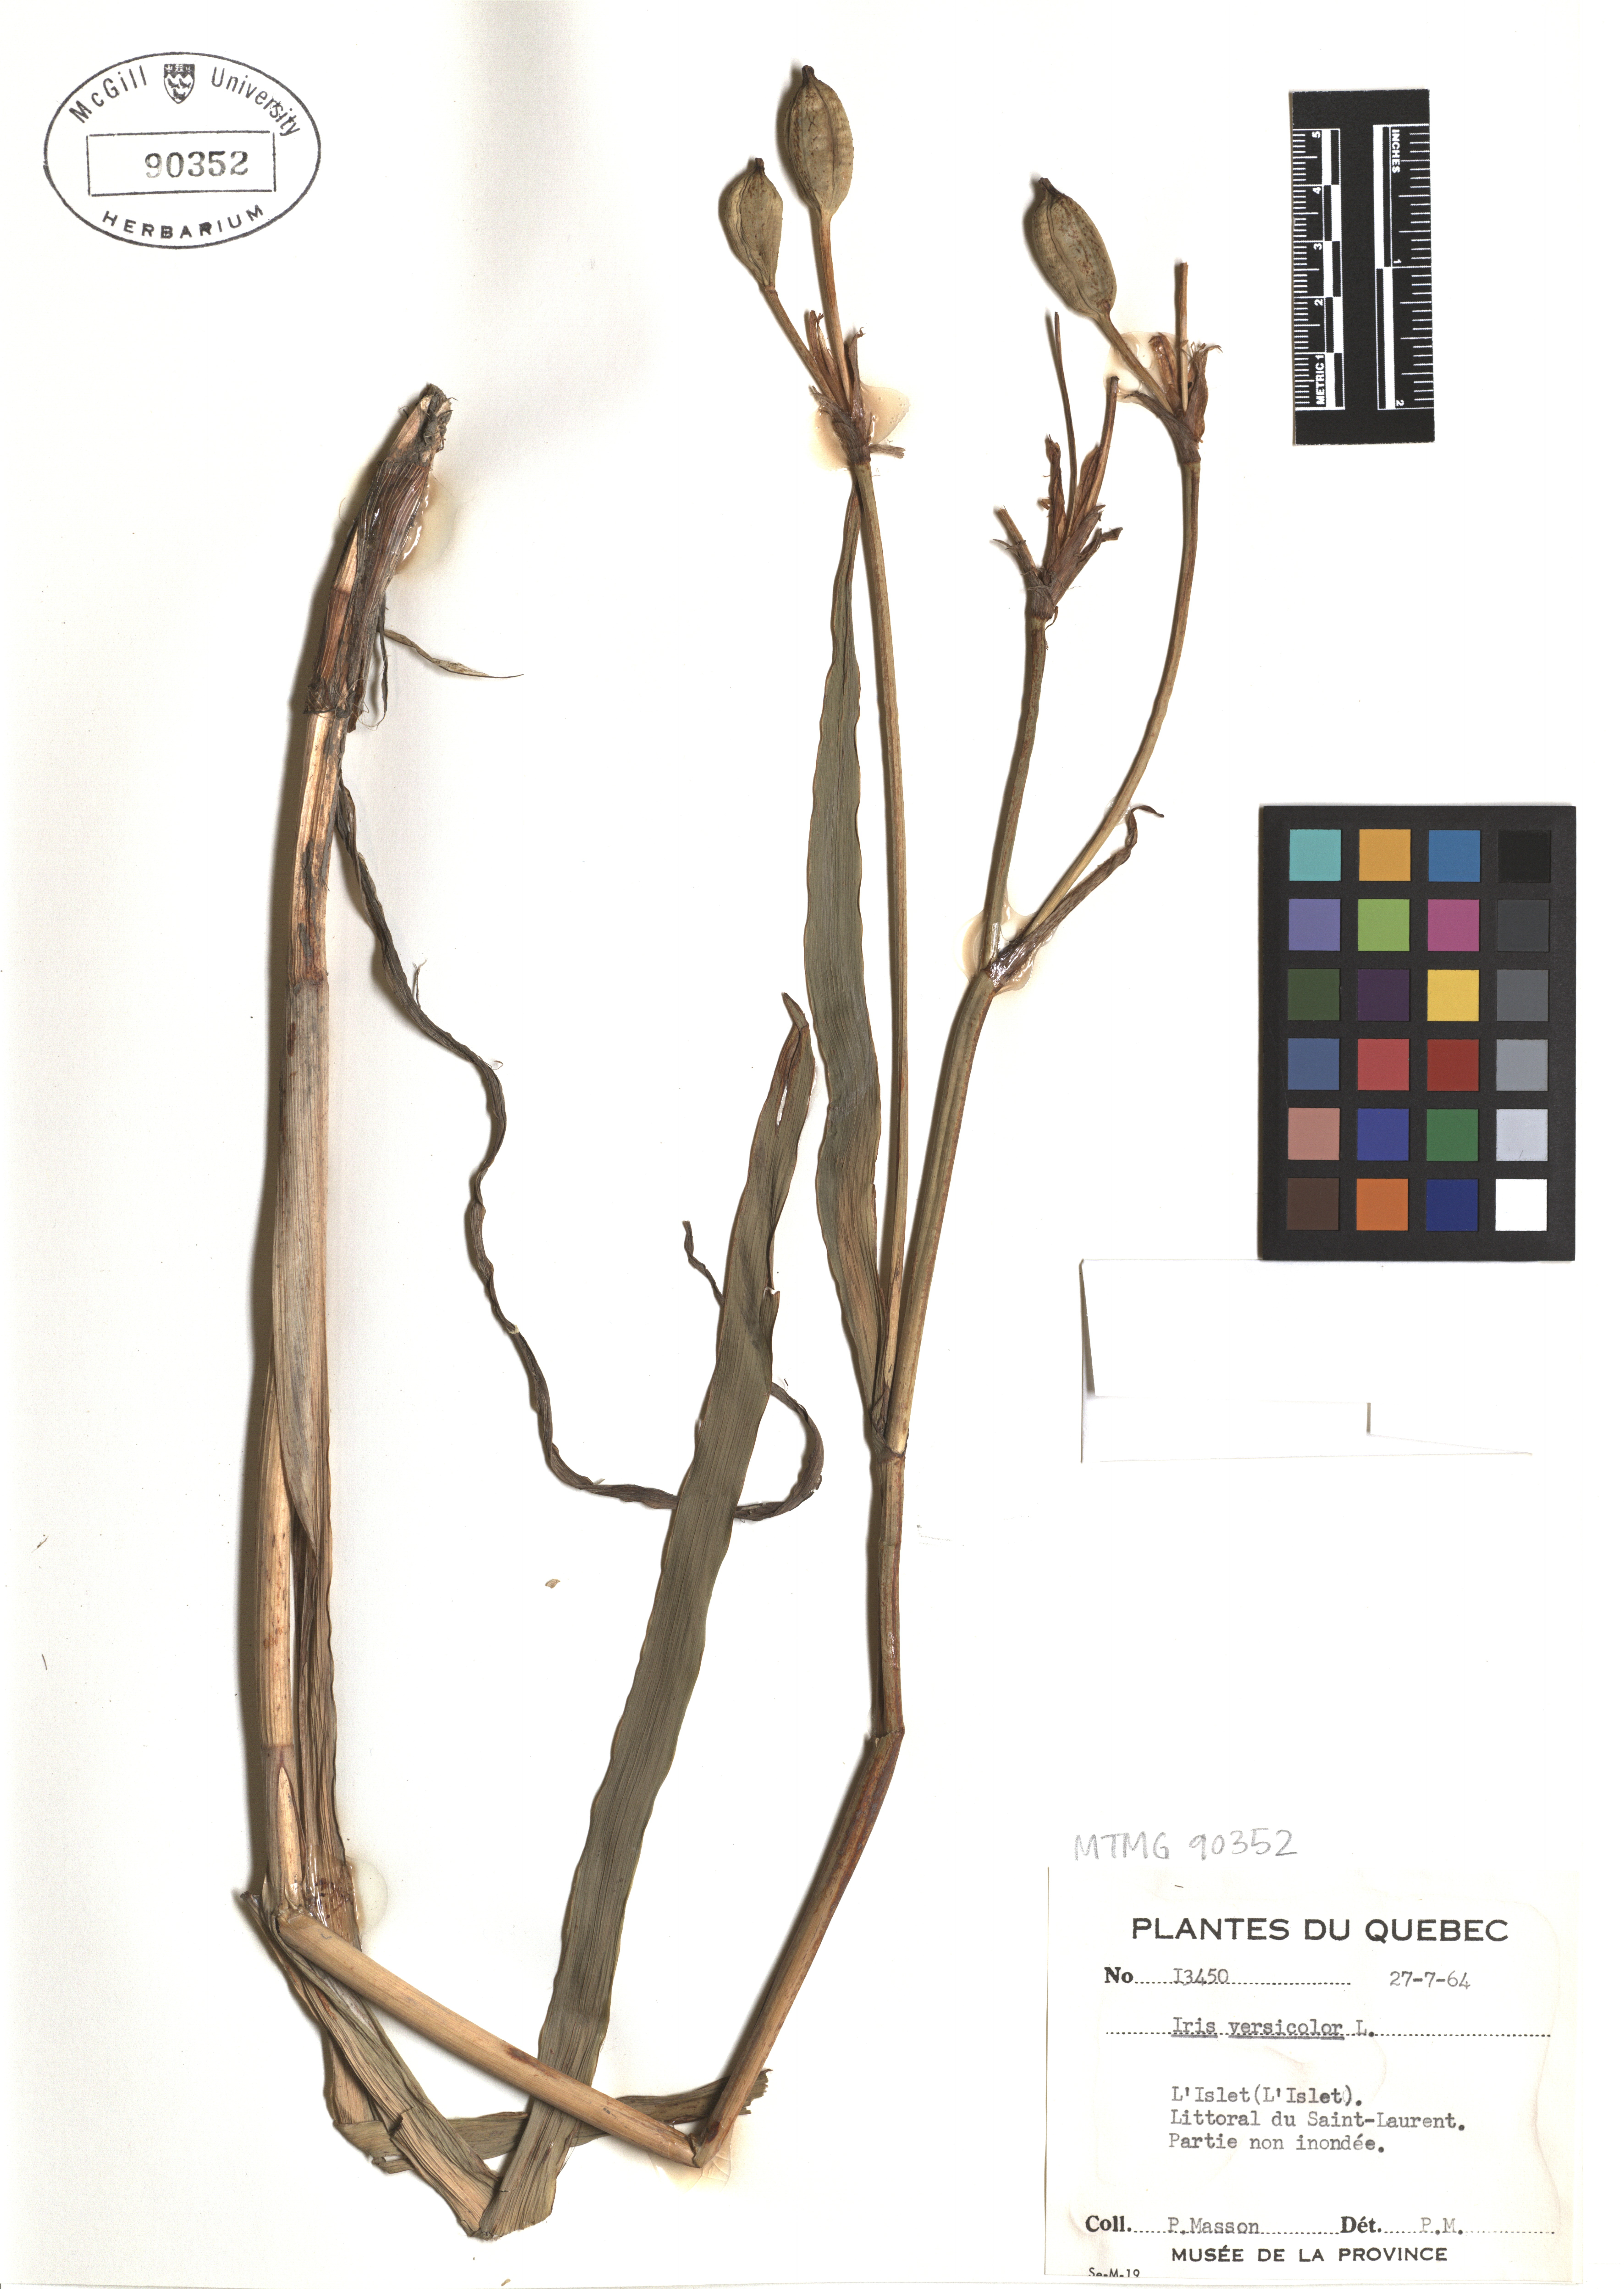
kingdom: Plantae
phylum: Tracheophyta
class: Liliopsida
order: Asparagales
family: Iridaceae
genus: Iris
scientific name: Iris versicolor
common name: Purple iris
